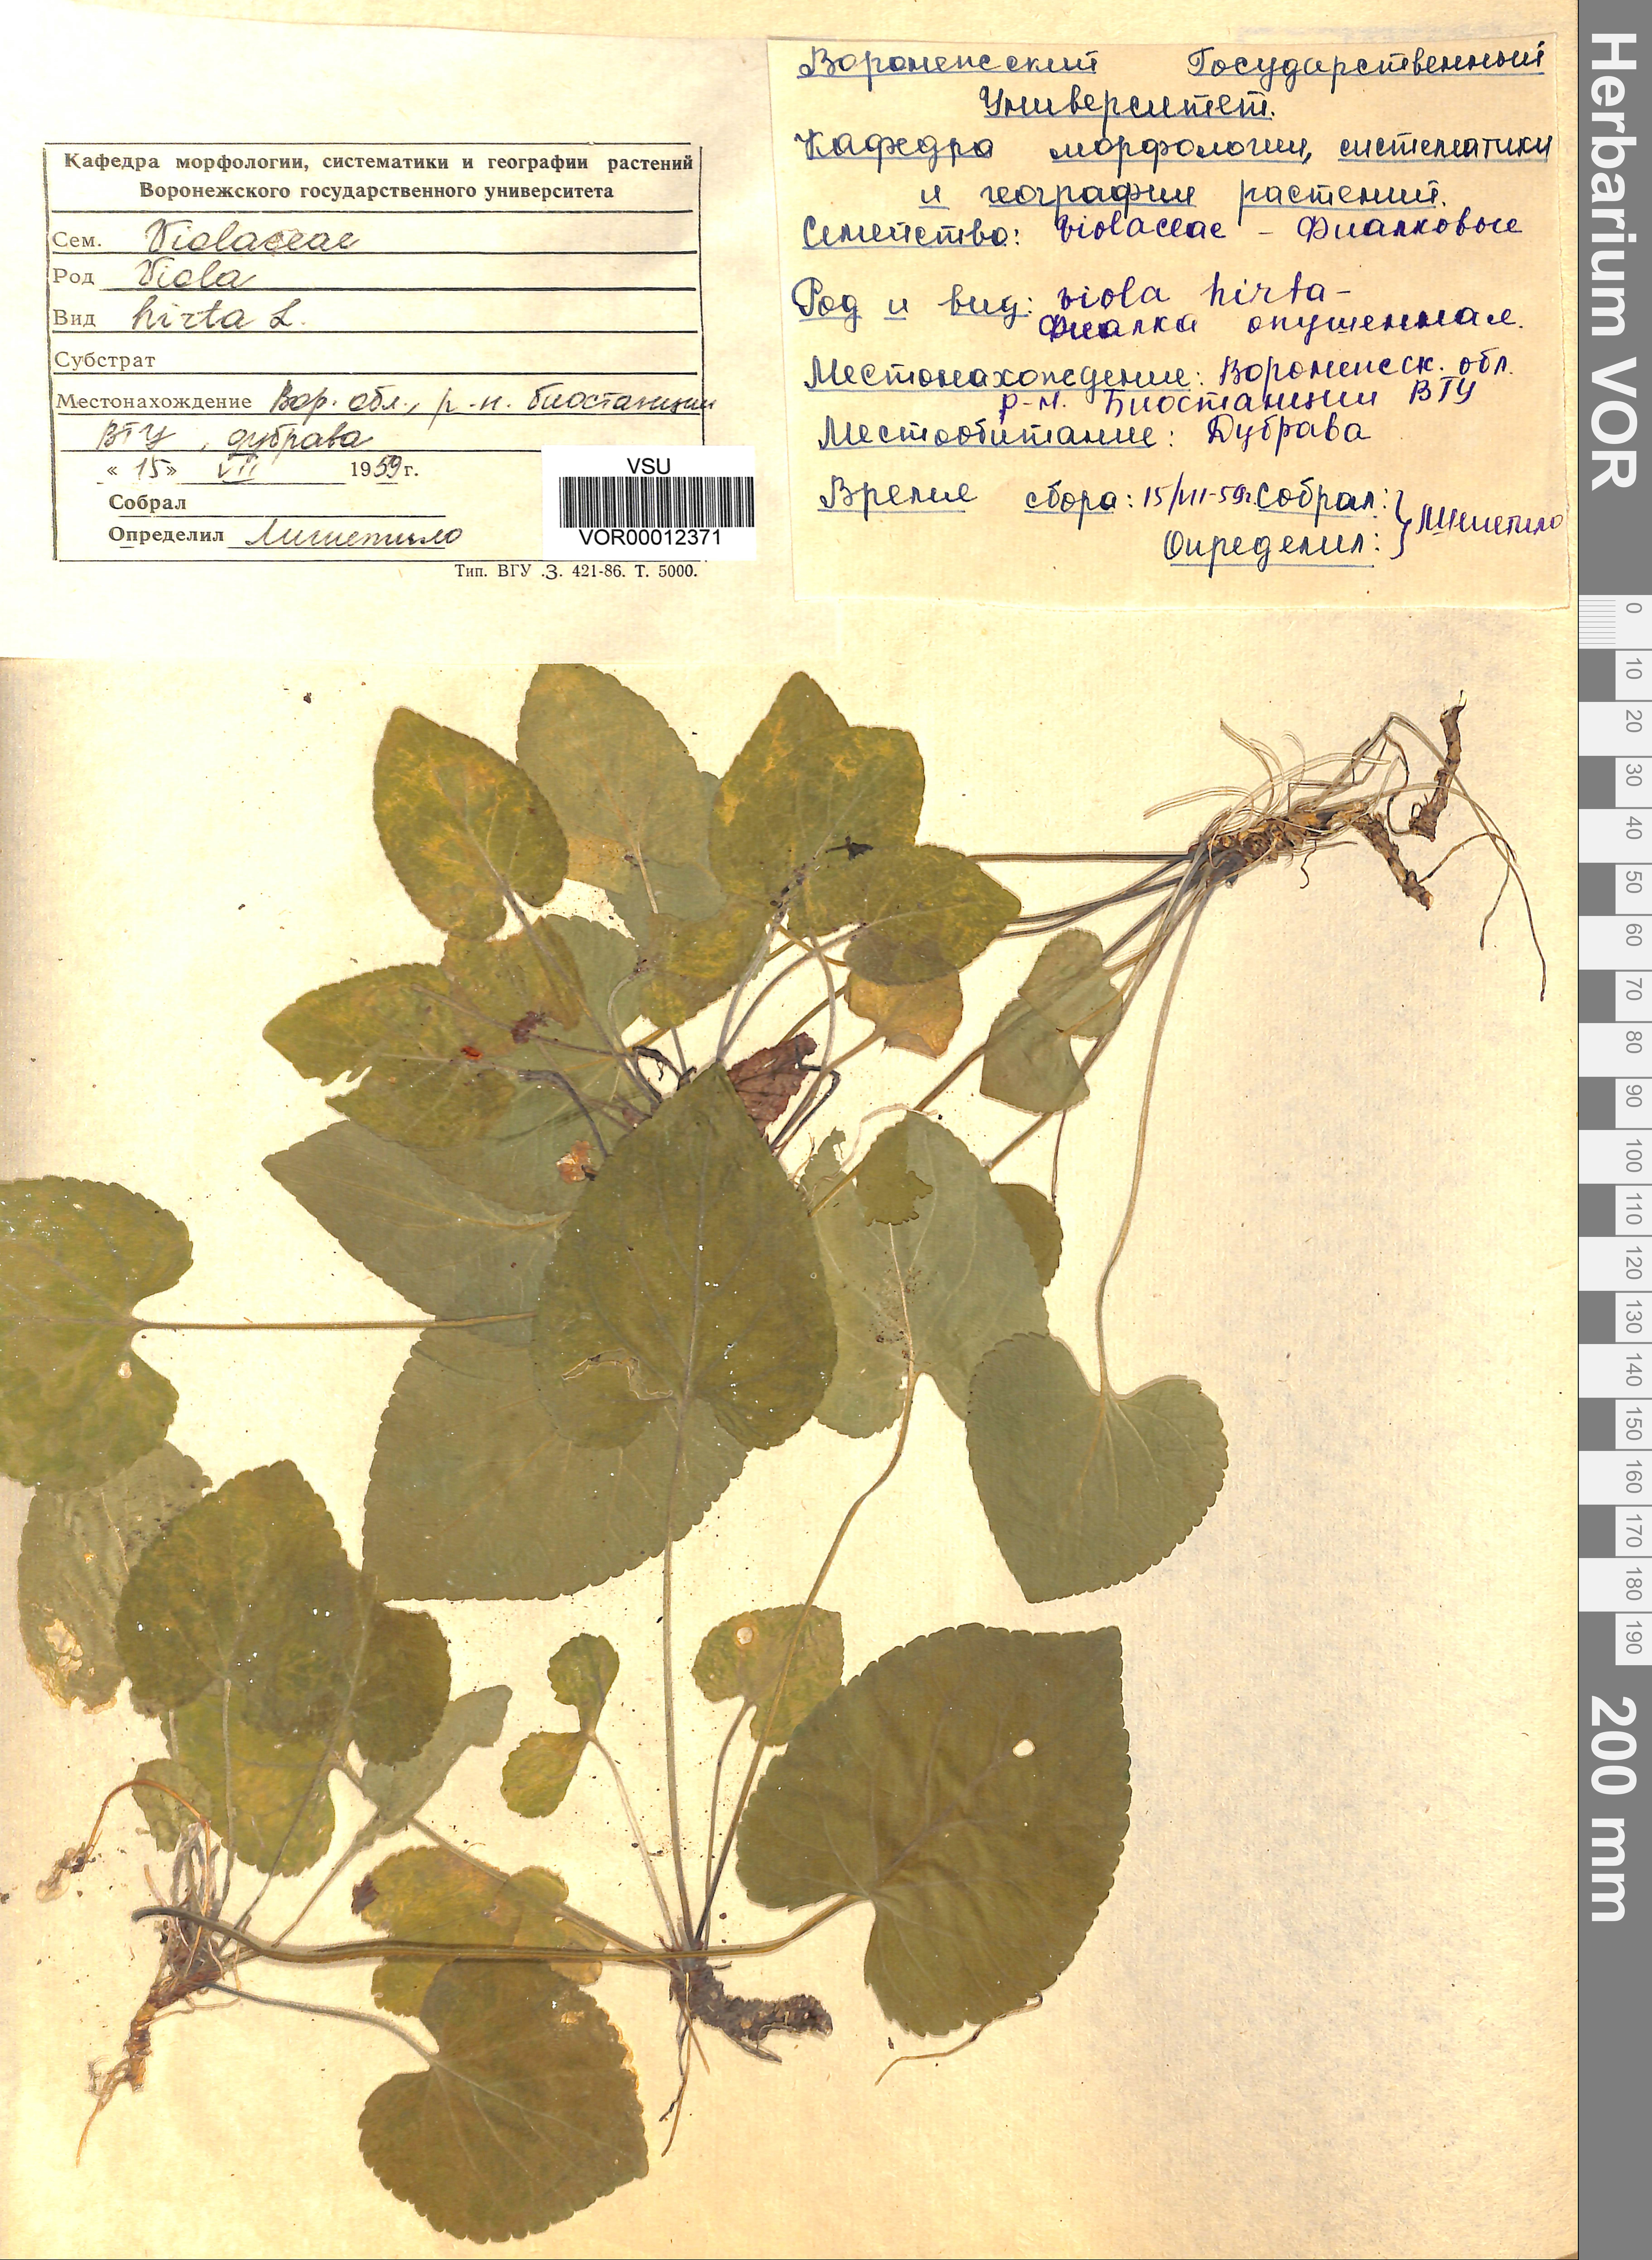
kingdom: Plantae
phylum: Tracheophyta
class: Magnoliopsida
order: Malpighiales
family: Violaceae
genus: Viola
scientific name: Viola hirta
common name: Hairy violet
